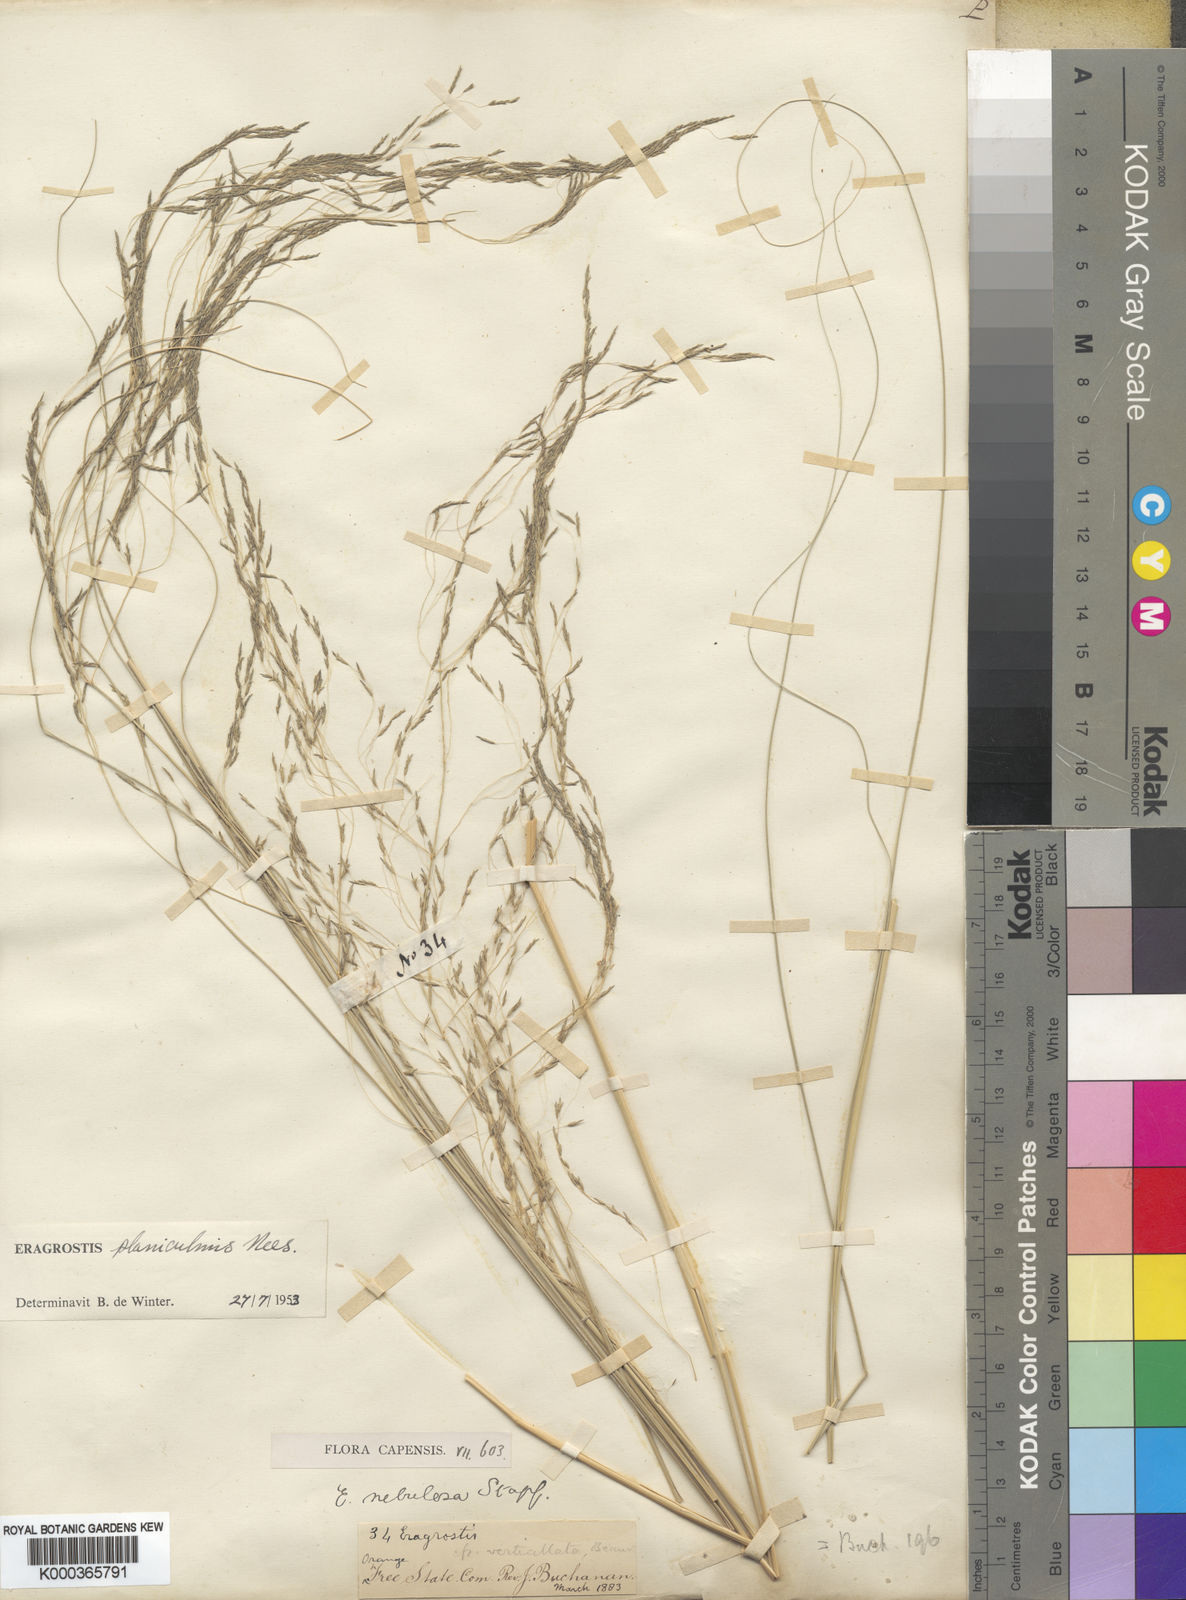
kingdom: Plantae
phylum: Tracheophyta
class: Liliopsida
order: Poales
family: Poaceae
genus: Eragrostis
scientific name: Eragrostis planiculmis
